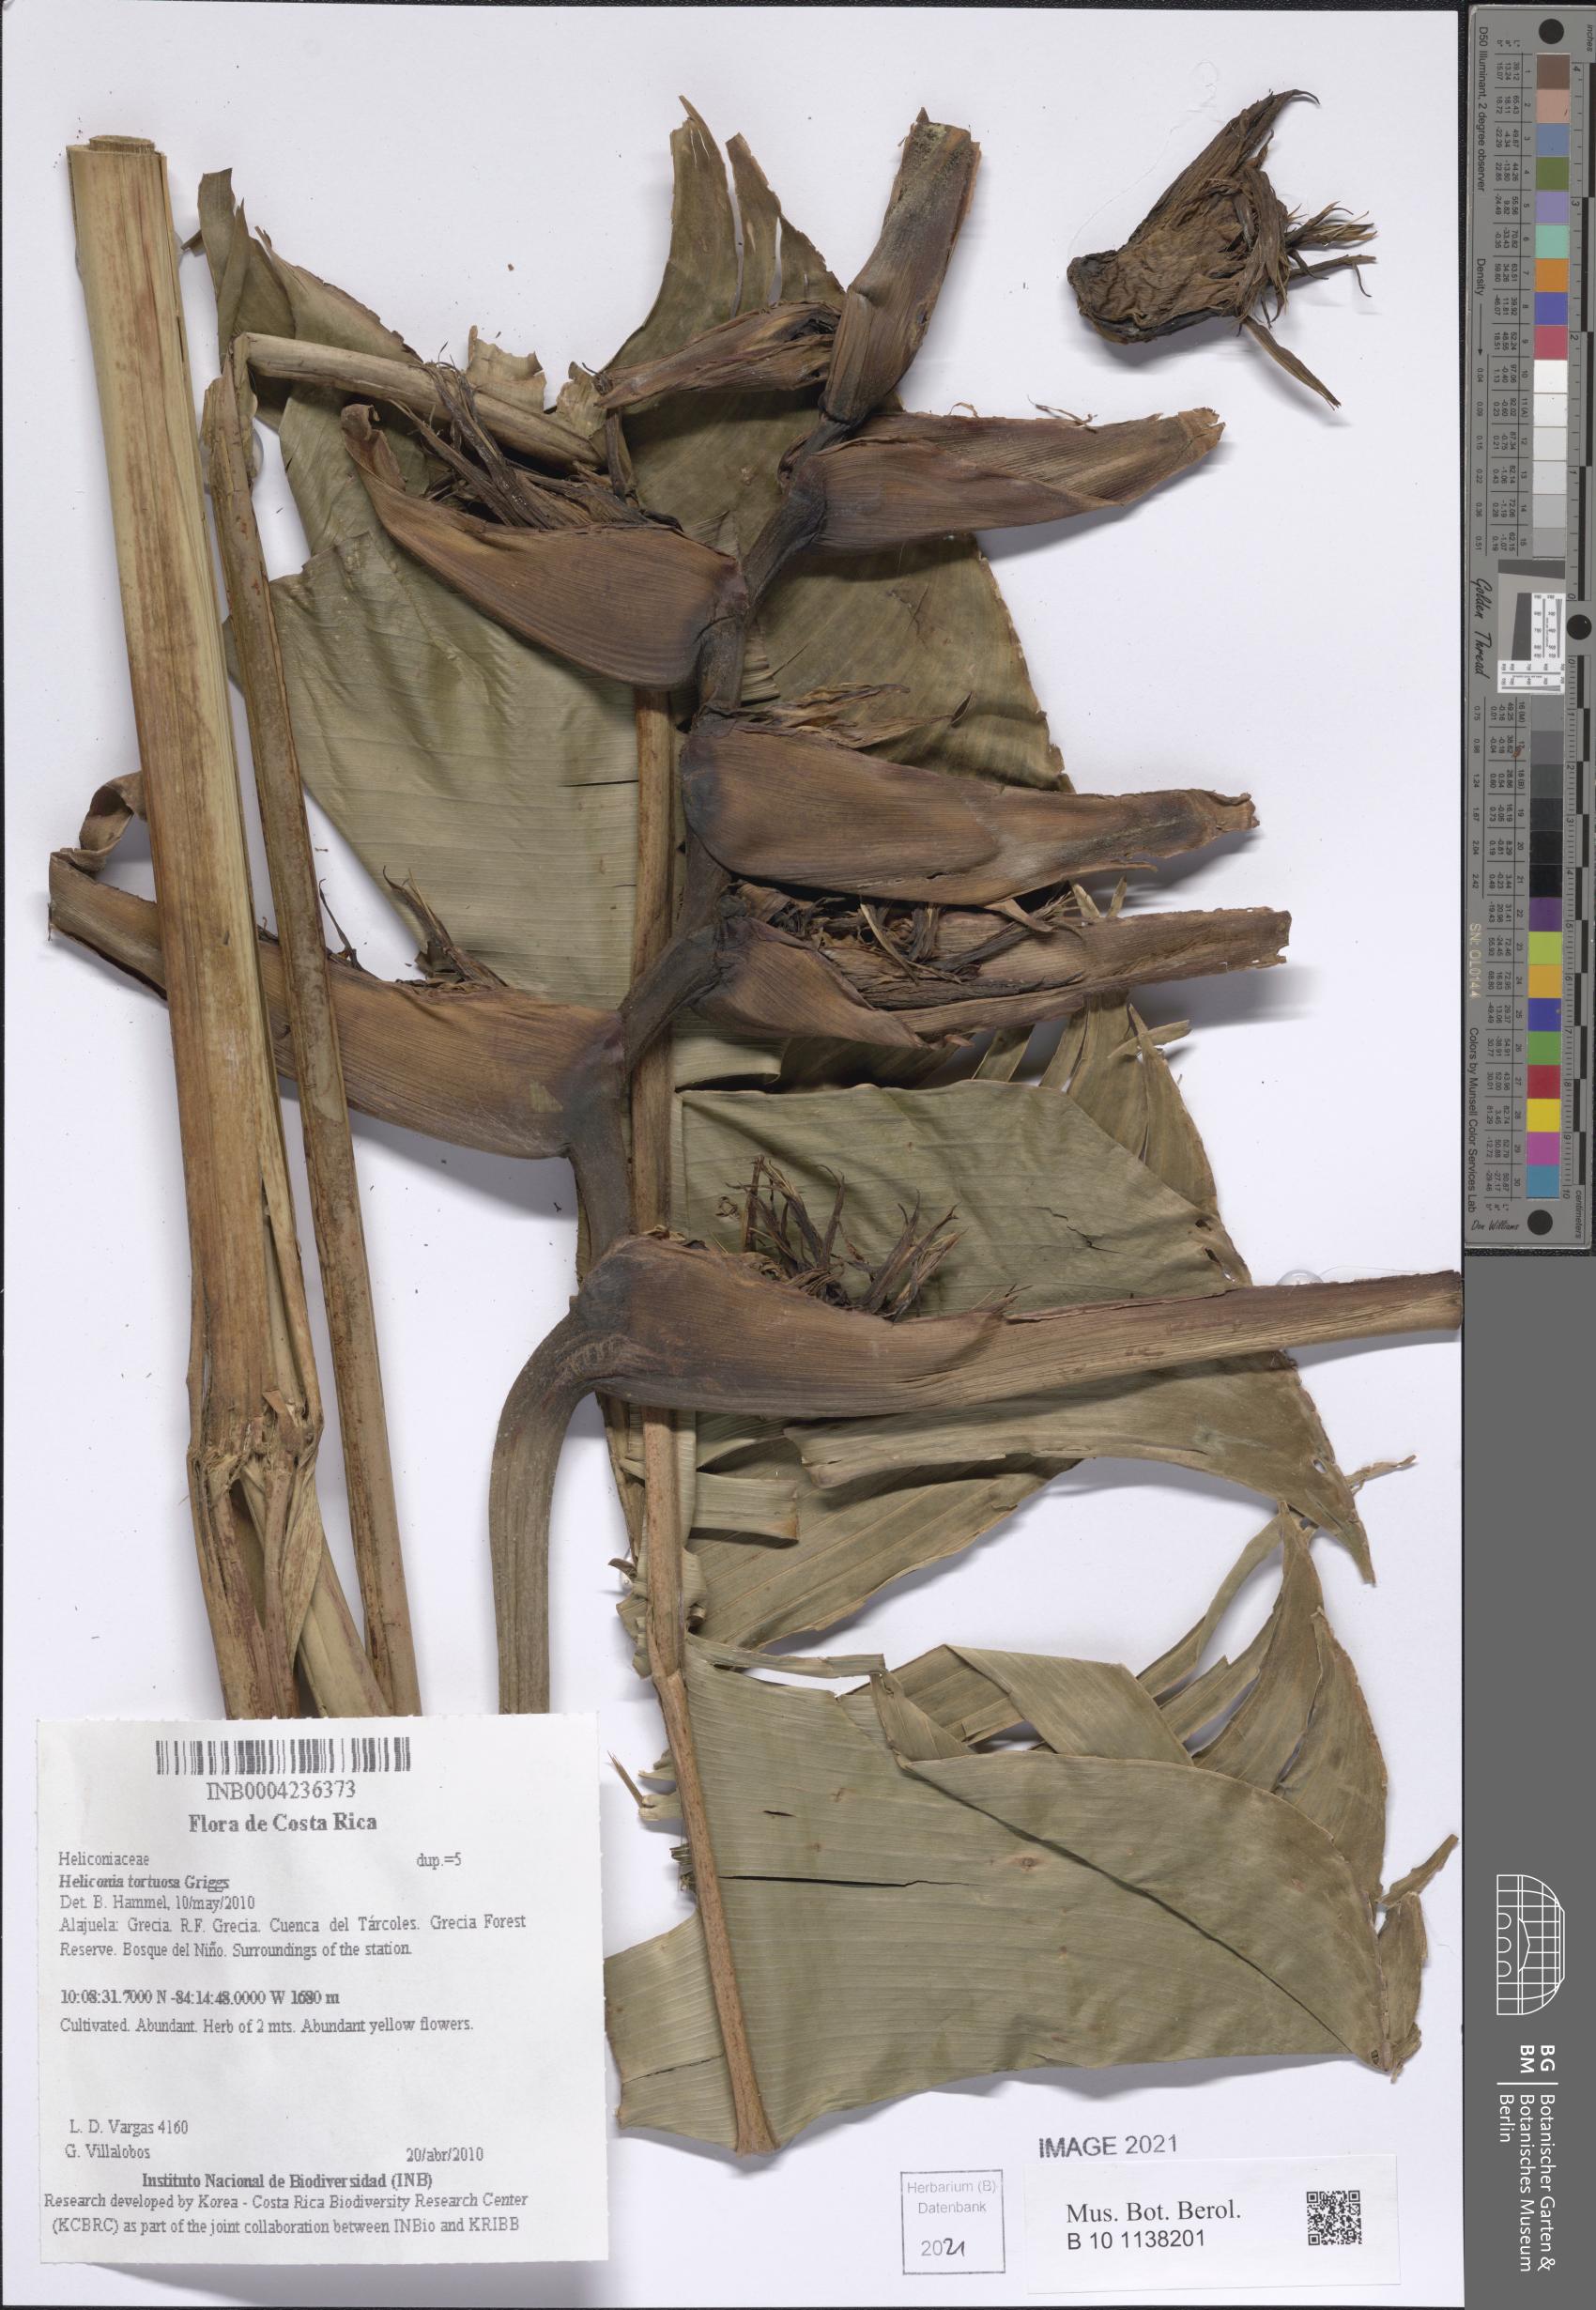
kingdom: Plantae
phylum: Tracheophyta
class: Liliopsida
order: Zingiberales
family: Heliconiaceae
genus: Heliconia
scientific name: Heliconia tortuosa
